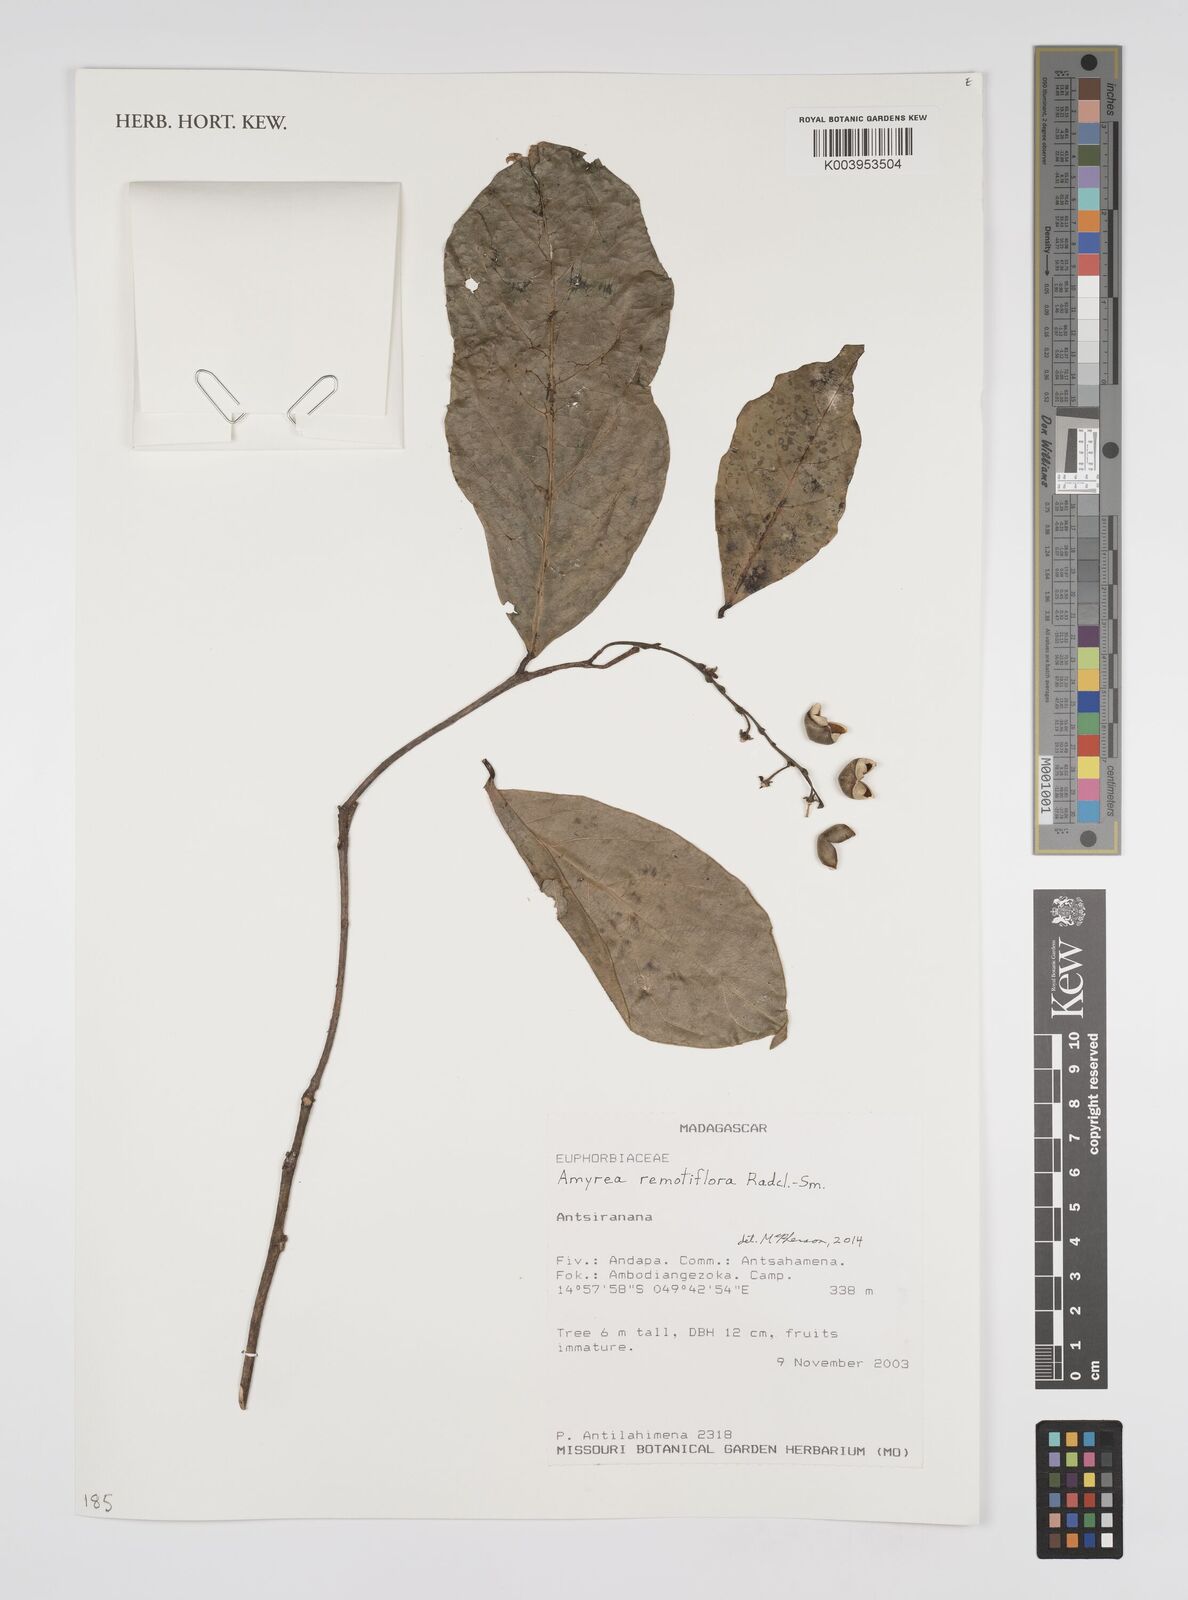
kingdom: Plantae
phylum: Tracheophyta
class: Magnoliopsida
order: Malpighiales
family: Euphorbiaceae
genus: Amyrea
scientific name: Amyrea remotiflora
